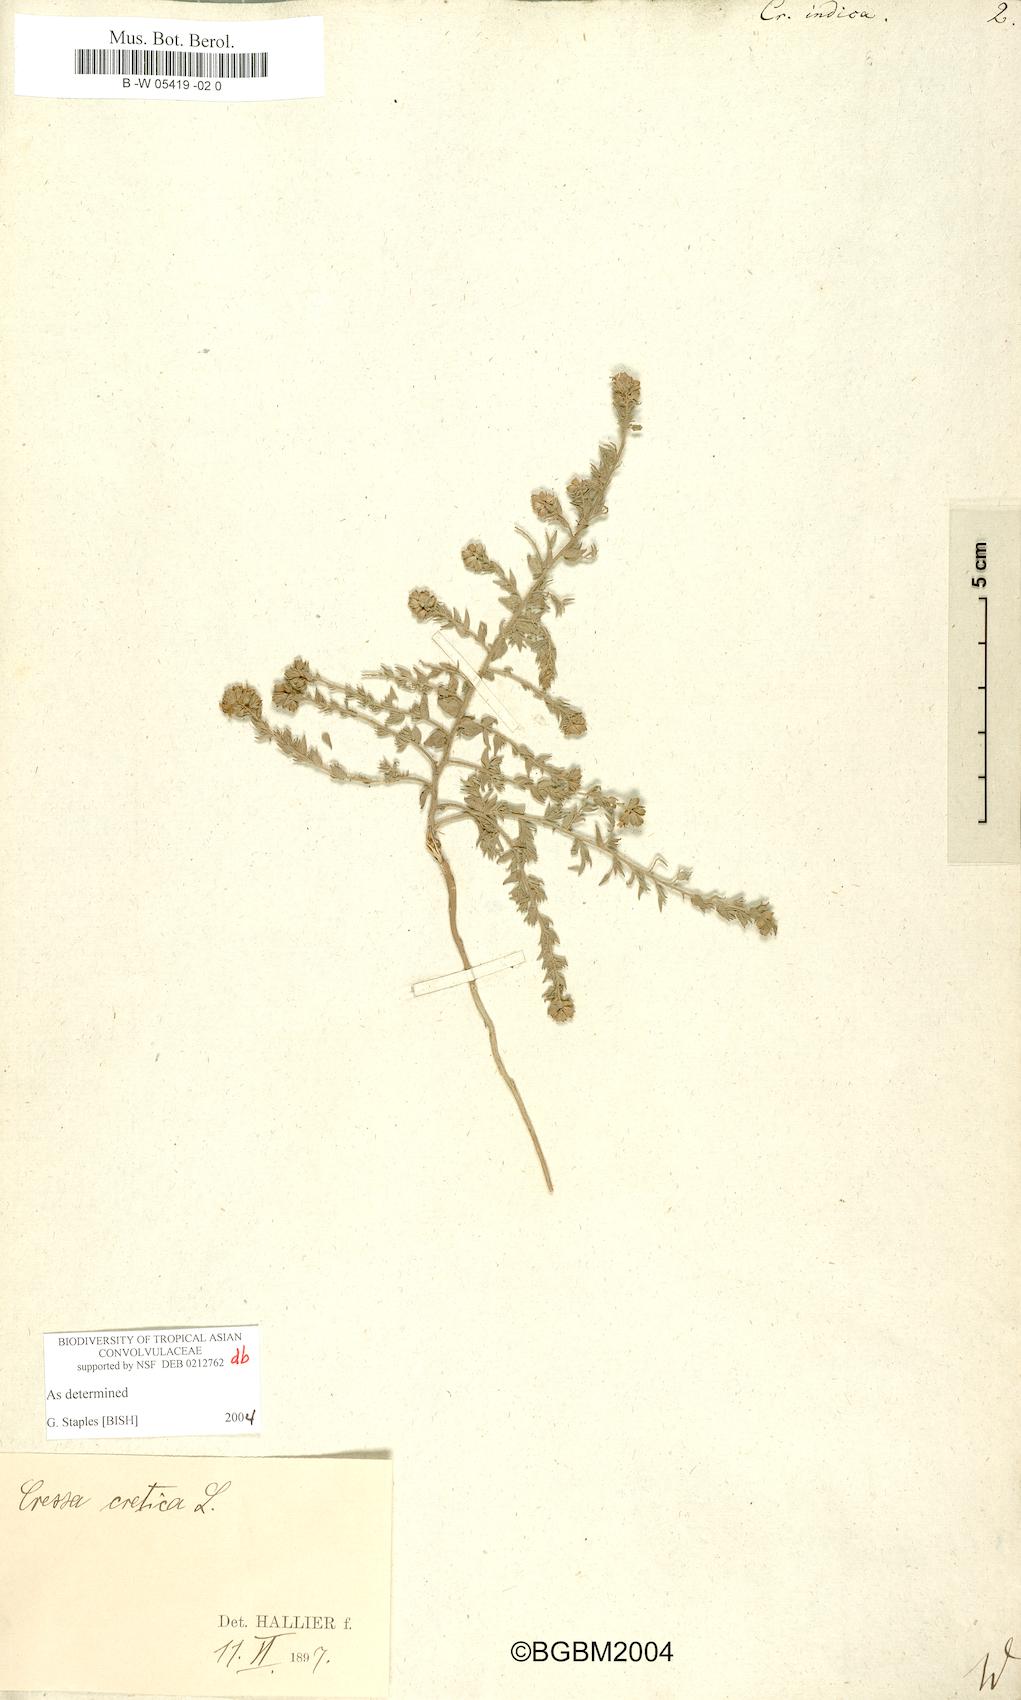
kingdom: Plantae
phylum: Tracheophyta
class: Magnoliopsida
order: Solanales
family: Convolvulaceae
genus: Cressa
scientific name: Cressa cretica
